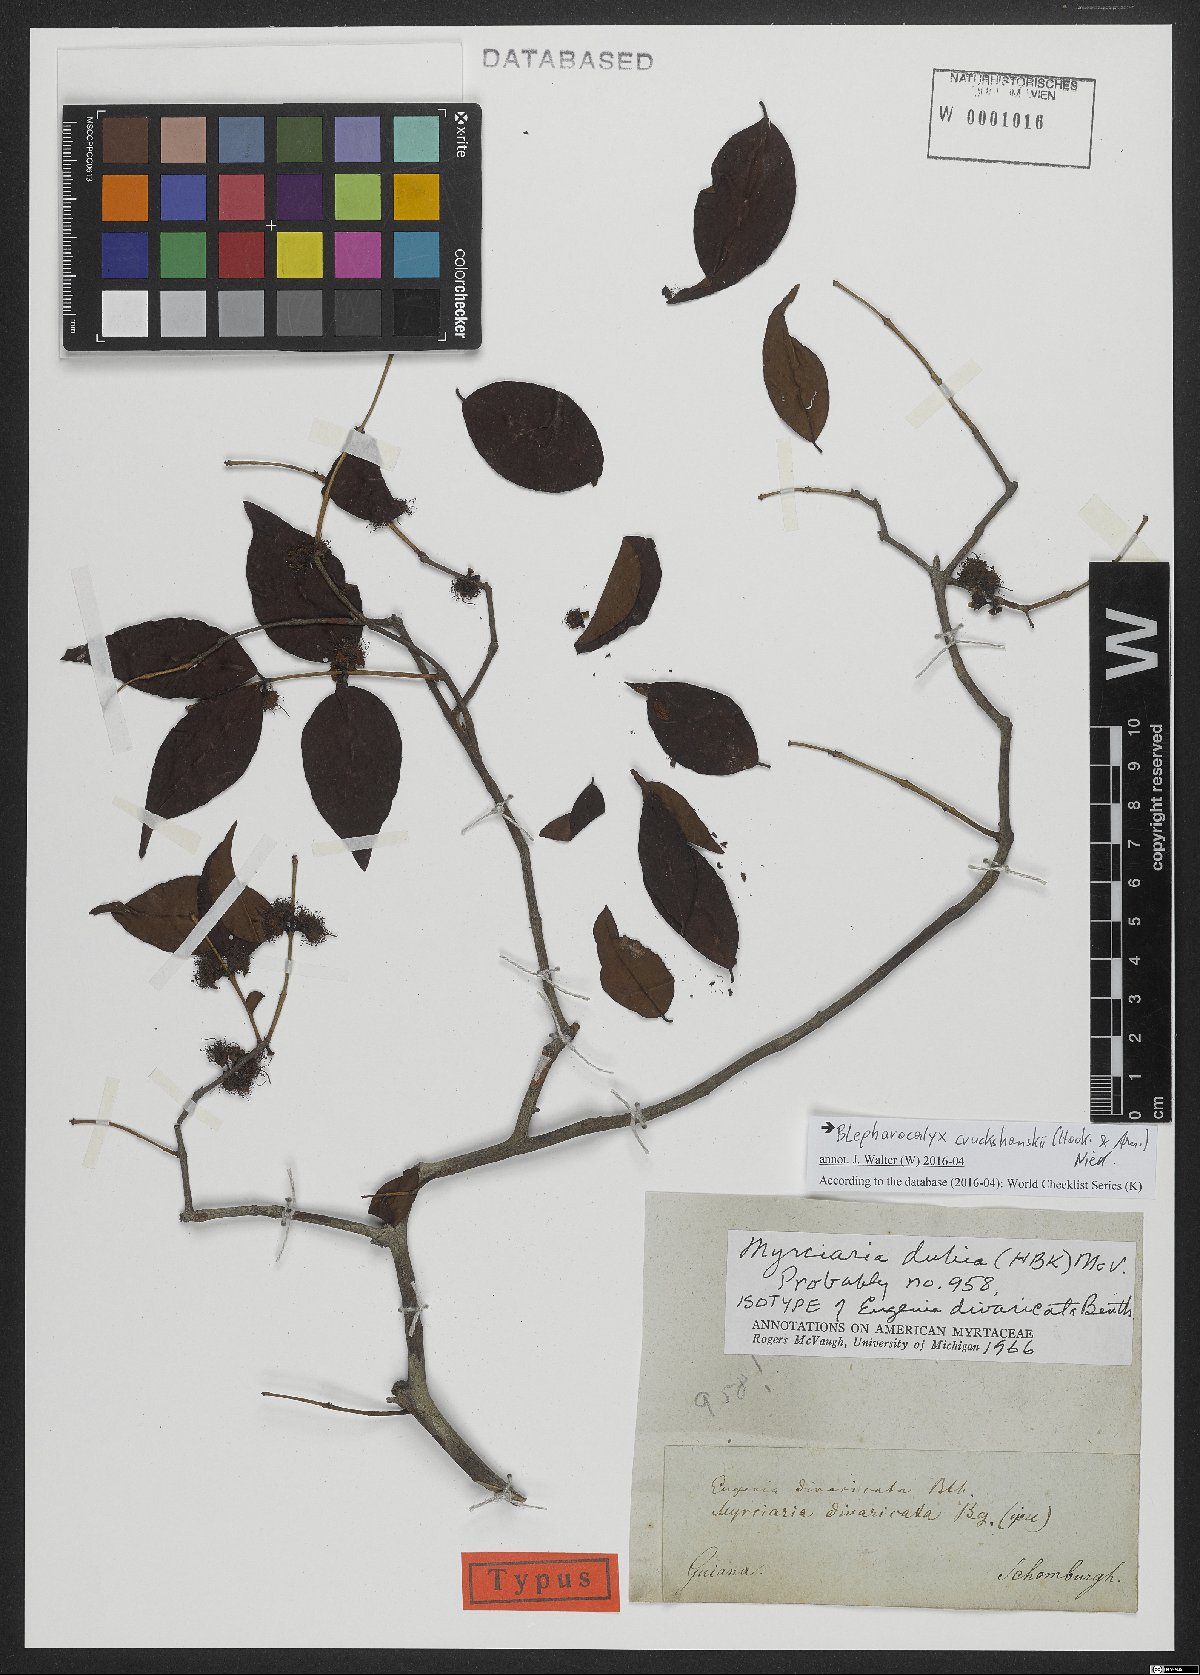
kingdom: Plantae
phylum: Tracheophyta
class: Magnoliopsida
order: Myrtales
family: Myrtaceae
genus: Blepharocalyx
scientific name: Blepharocalyx cruckshanksii
